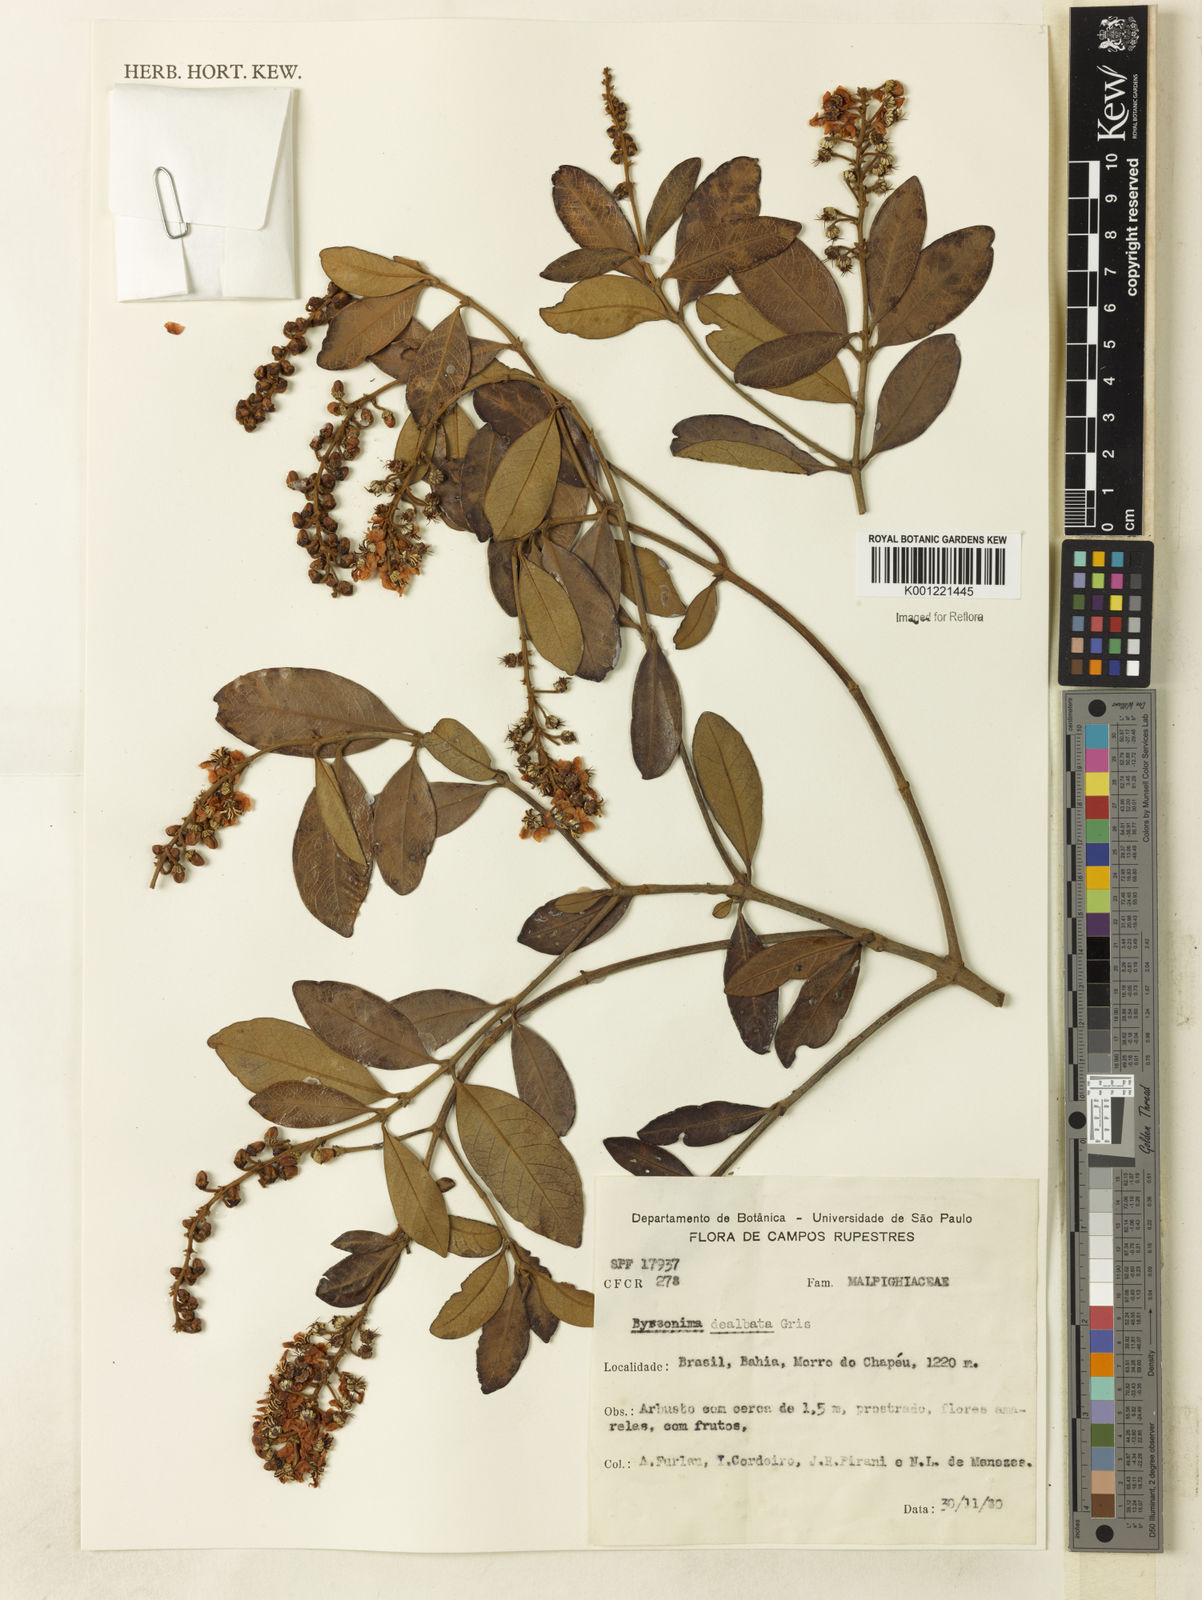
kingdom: Plantae
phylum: Tracheophyta
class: Magnoliopsida
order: Malpighiales
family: Malpighiaceae
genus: Byrsonima
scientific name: Byrsonima dealbata
